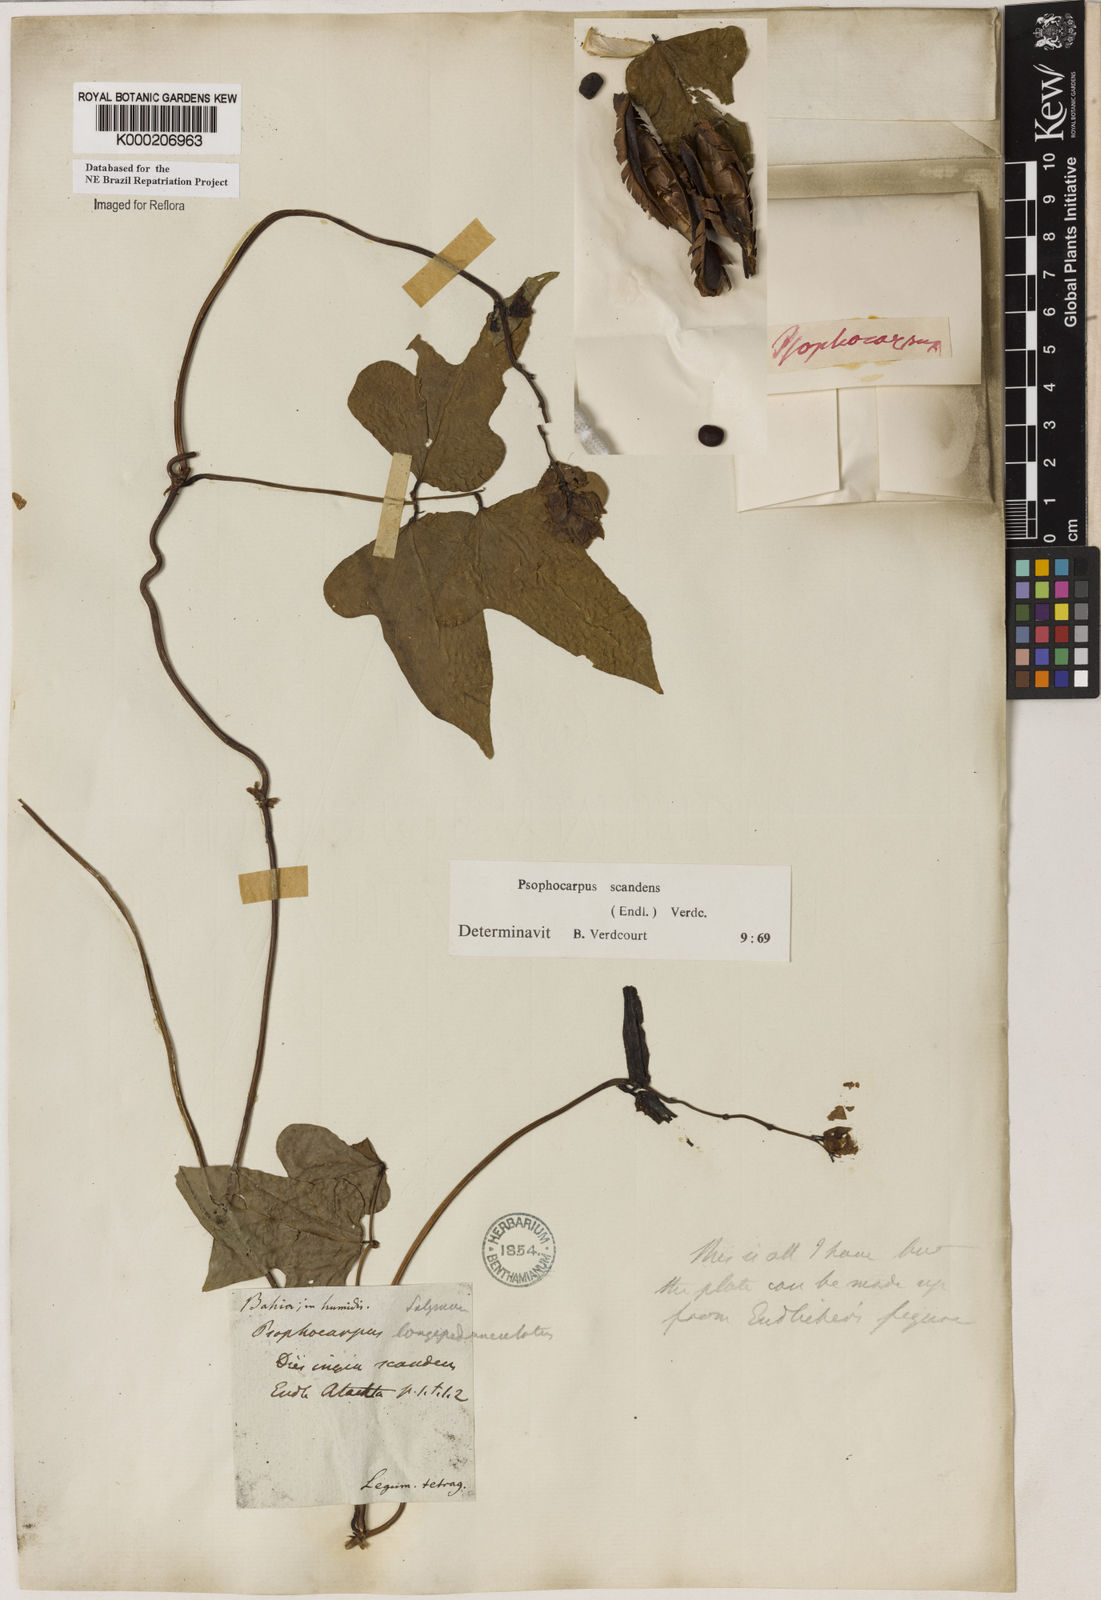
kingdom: Plantae
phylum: Tracheophyta
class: Magnoliopsida
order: Fabales
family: Fabaceae
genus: Psophocarpus
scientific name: Psophocarpus palustris
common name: African winged-bean
